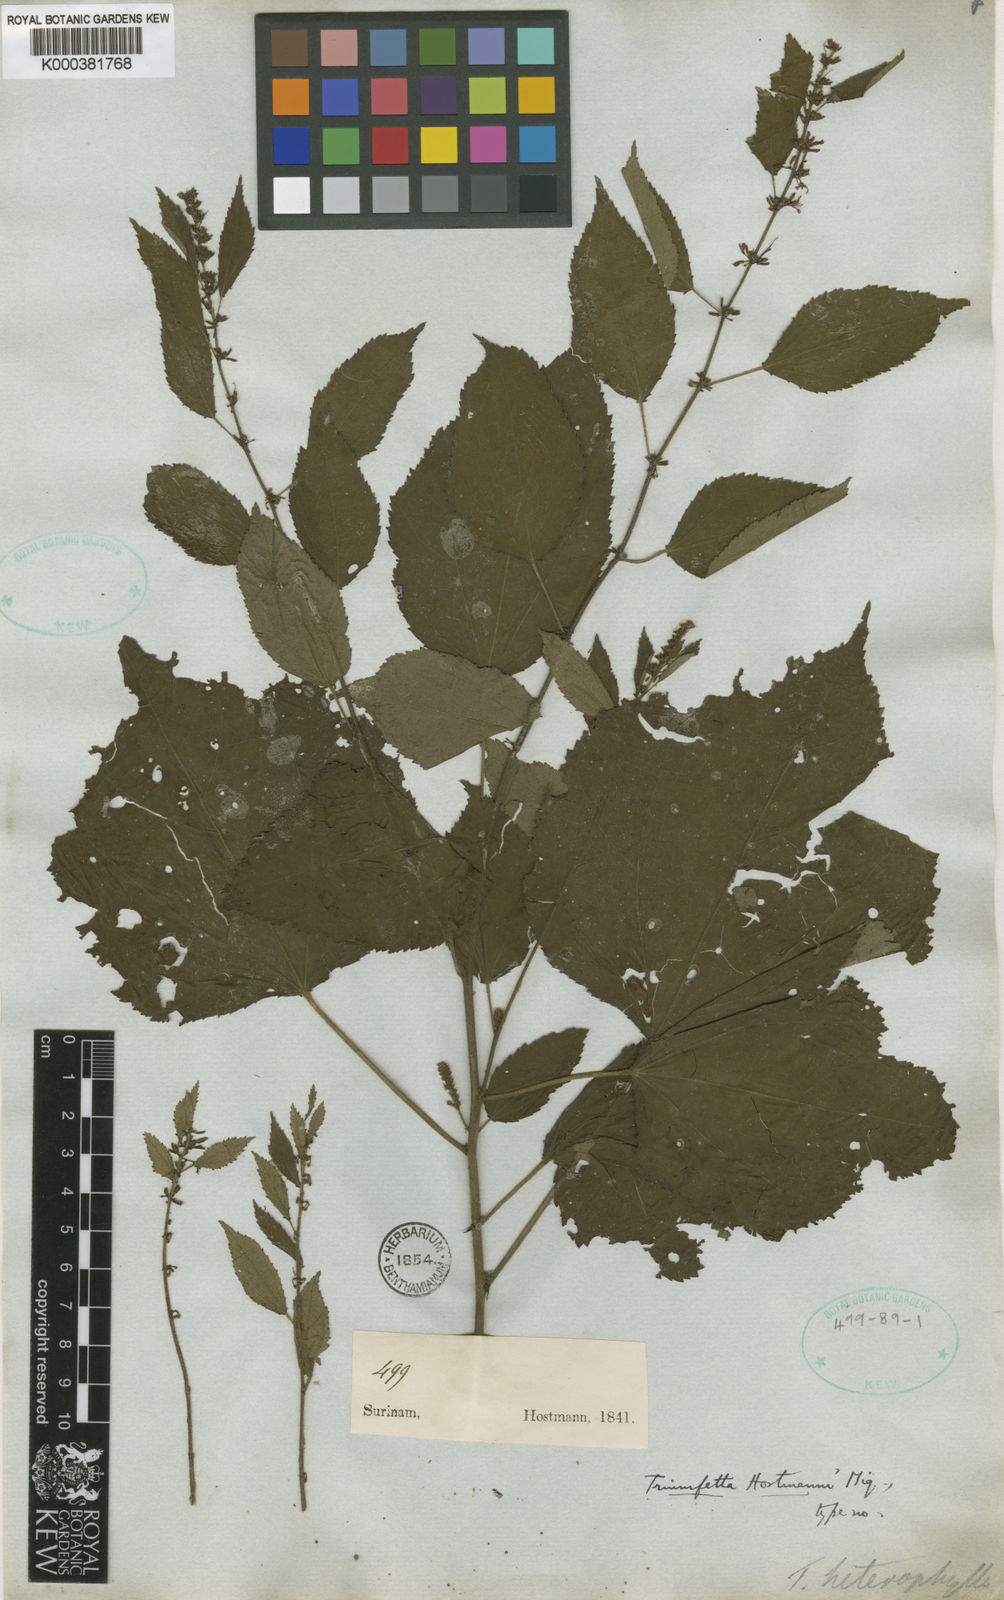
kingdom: Plantae
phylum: Tracheophyta
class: Magnoliopsida
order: Malvales
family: Malvaceae
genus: Triumfetta
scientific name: Triumfetta lappula
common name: Burbark
